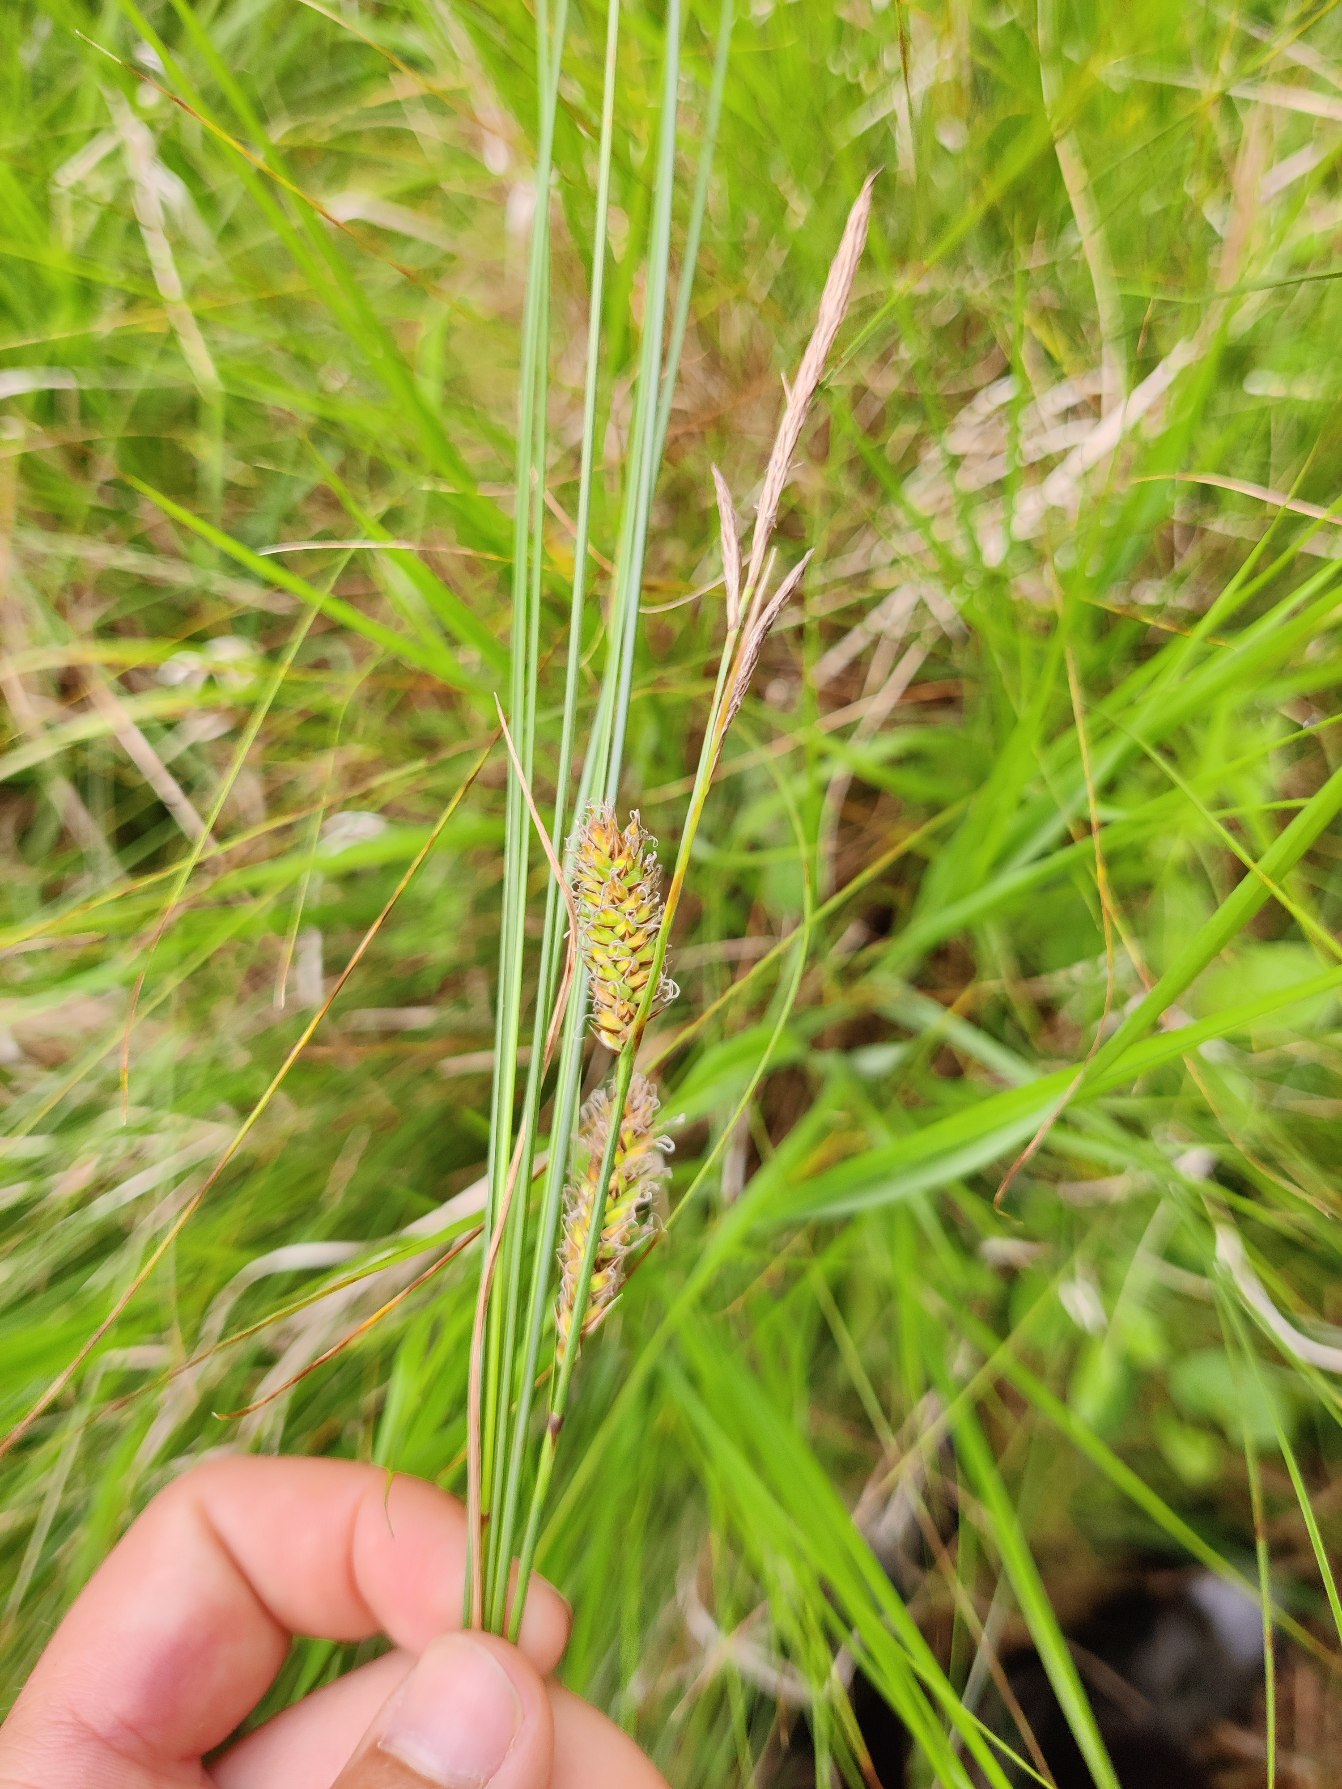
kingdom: Plantae
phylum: Tracheophyta
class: Liliopsida
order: Poales
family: Cyperaceae
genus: Carex
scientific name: Carex lasiocarpa
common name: Tråd-star
